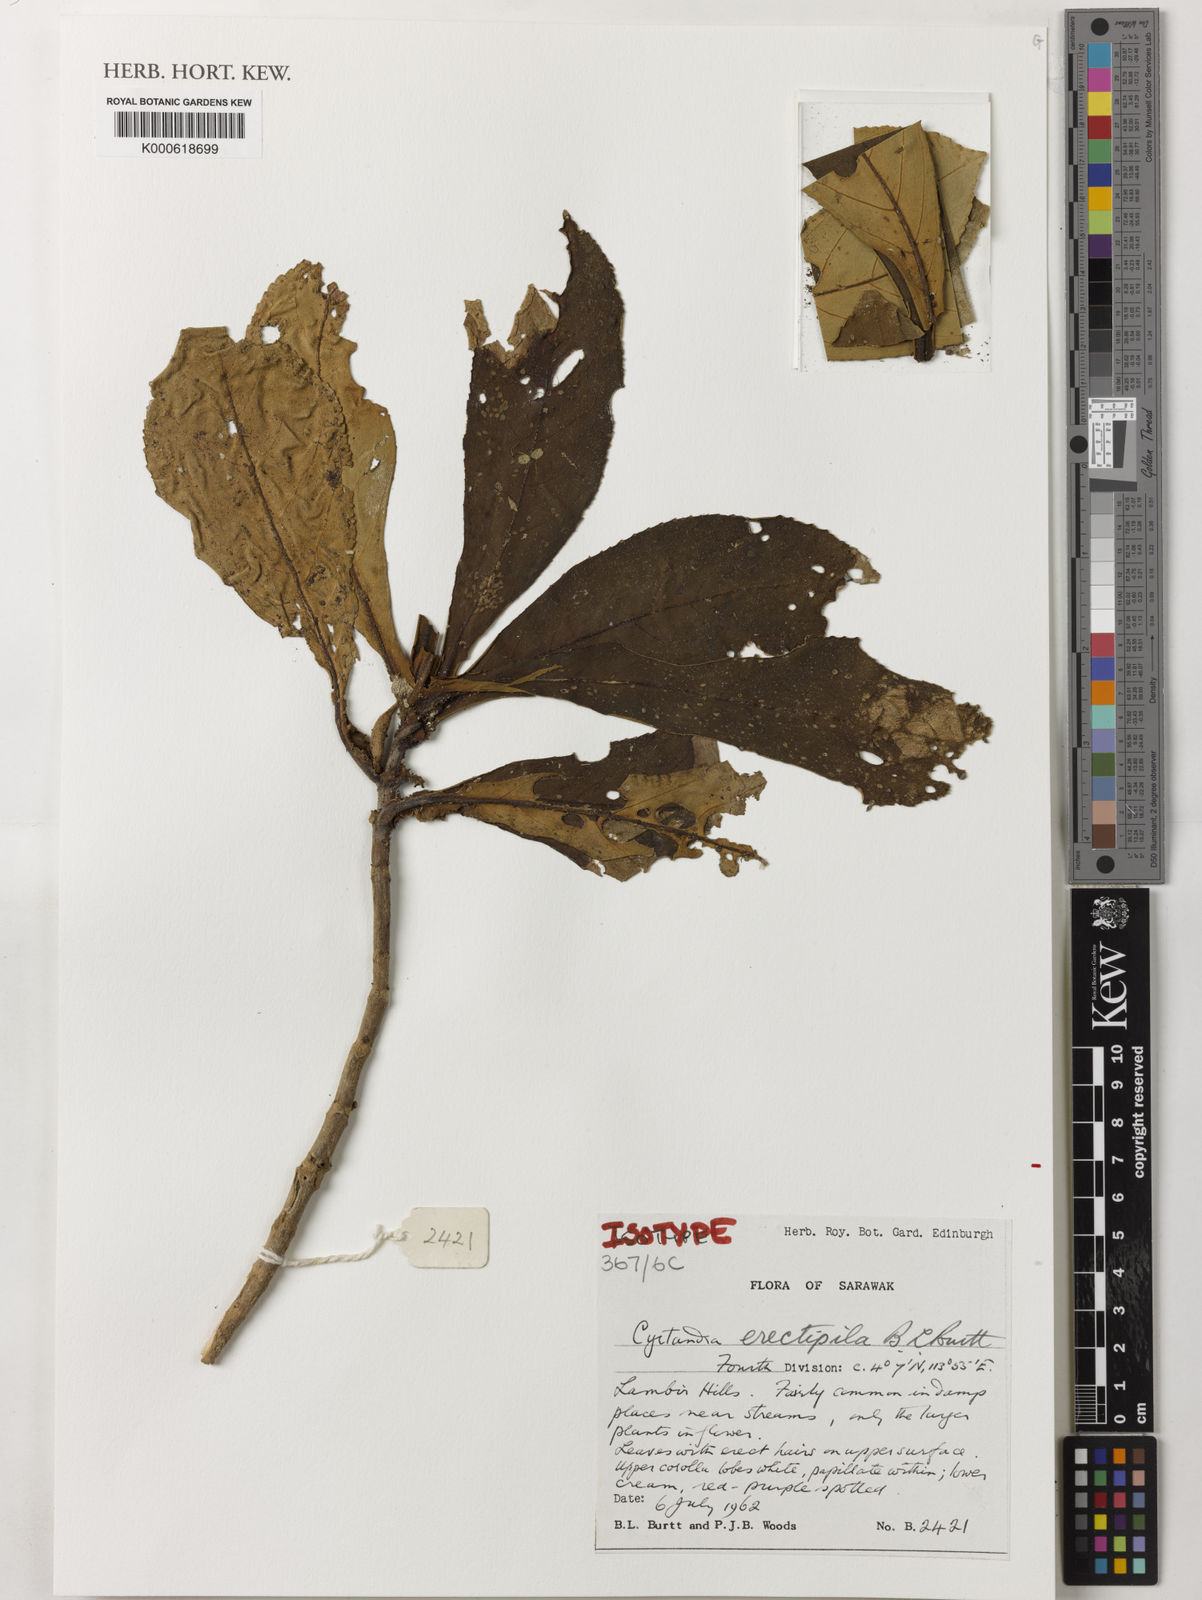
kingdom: Plantae
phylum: Tracheophyta
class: Magnoliopsida
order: Lamiales
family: Gesneriaceae
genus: Cyrtandra
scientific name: Cyrtandra erectipila
